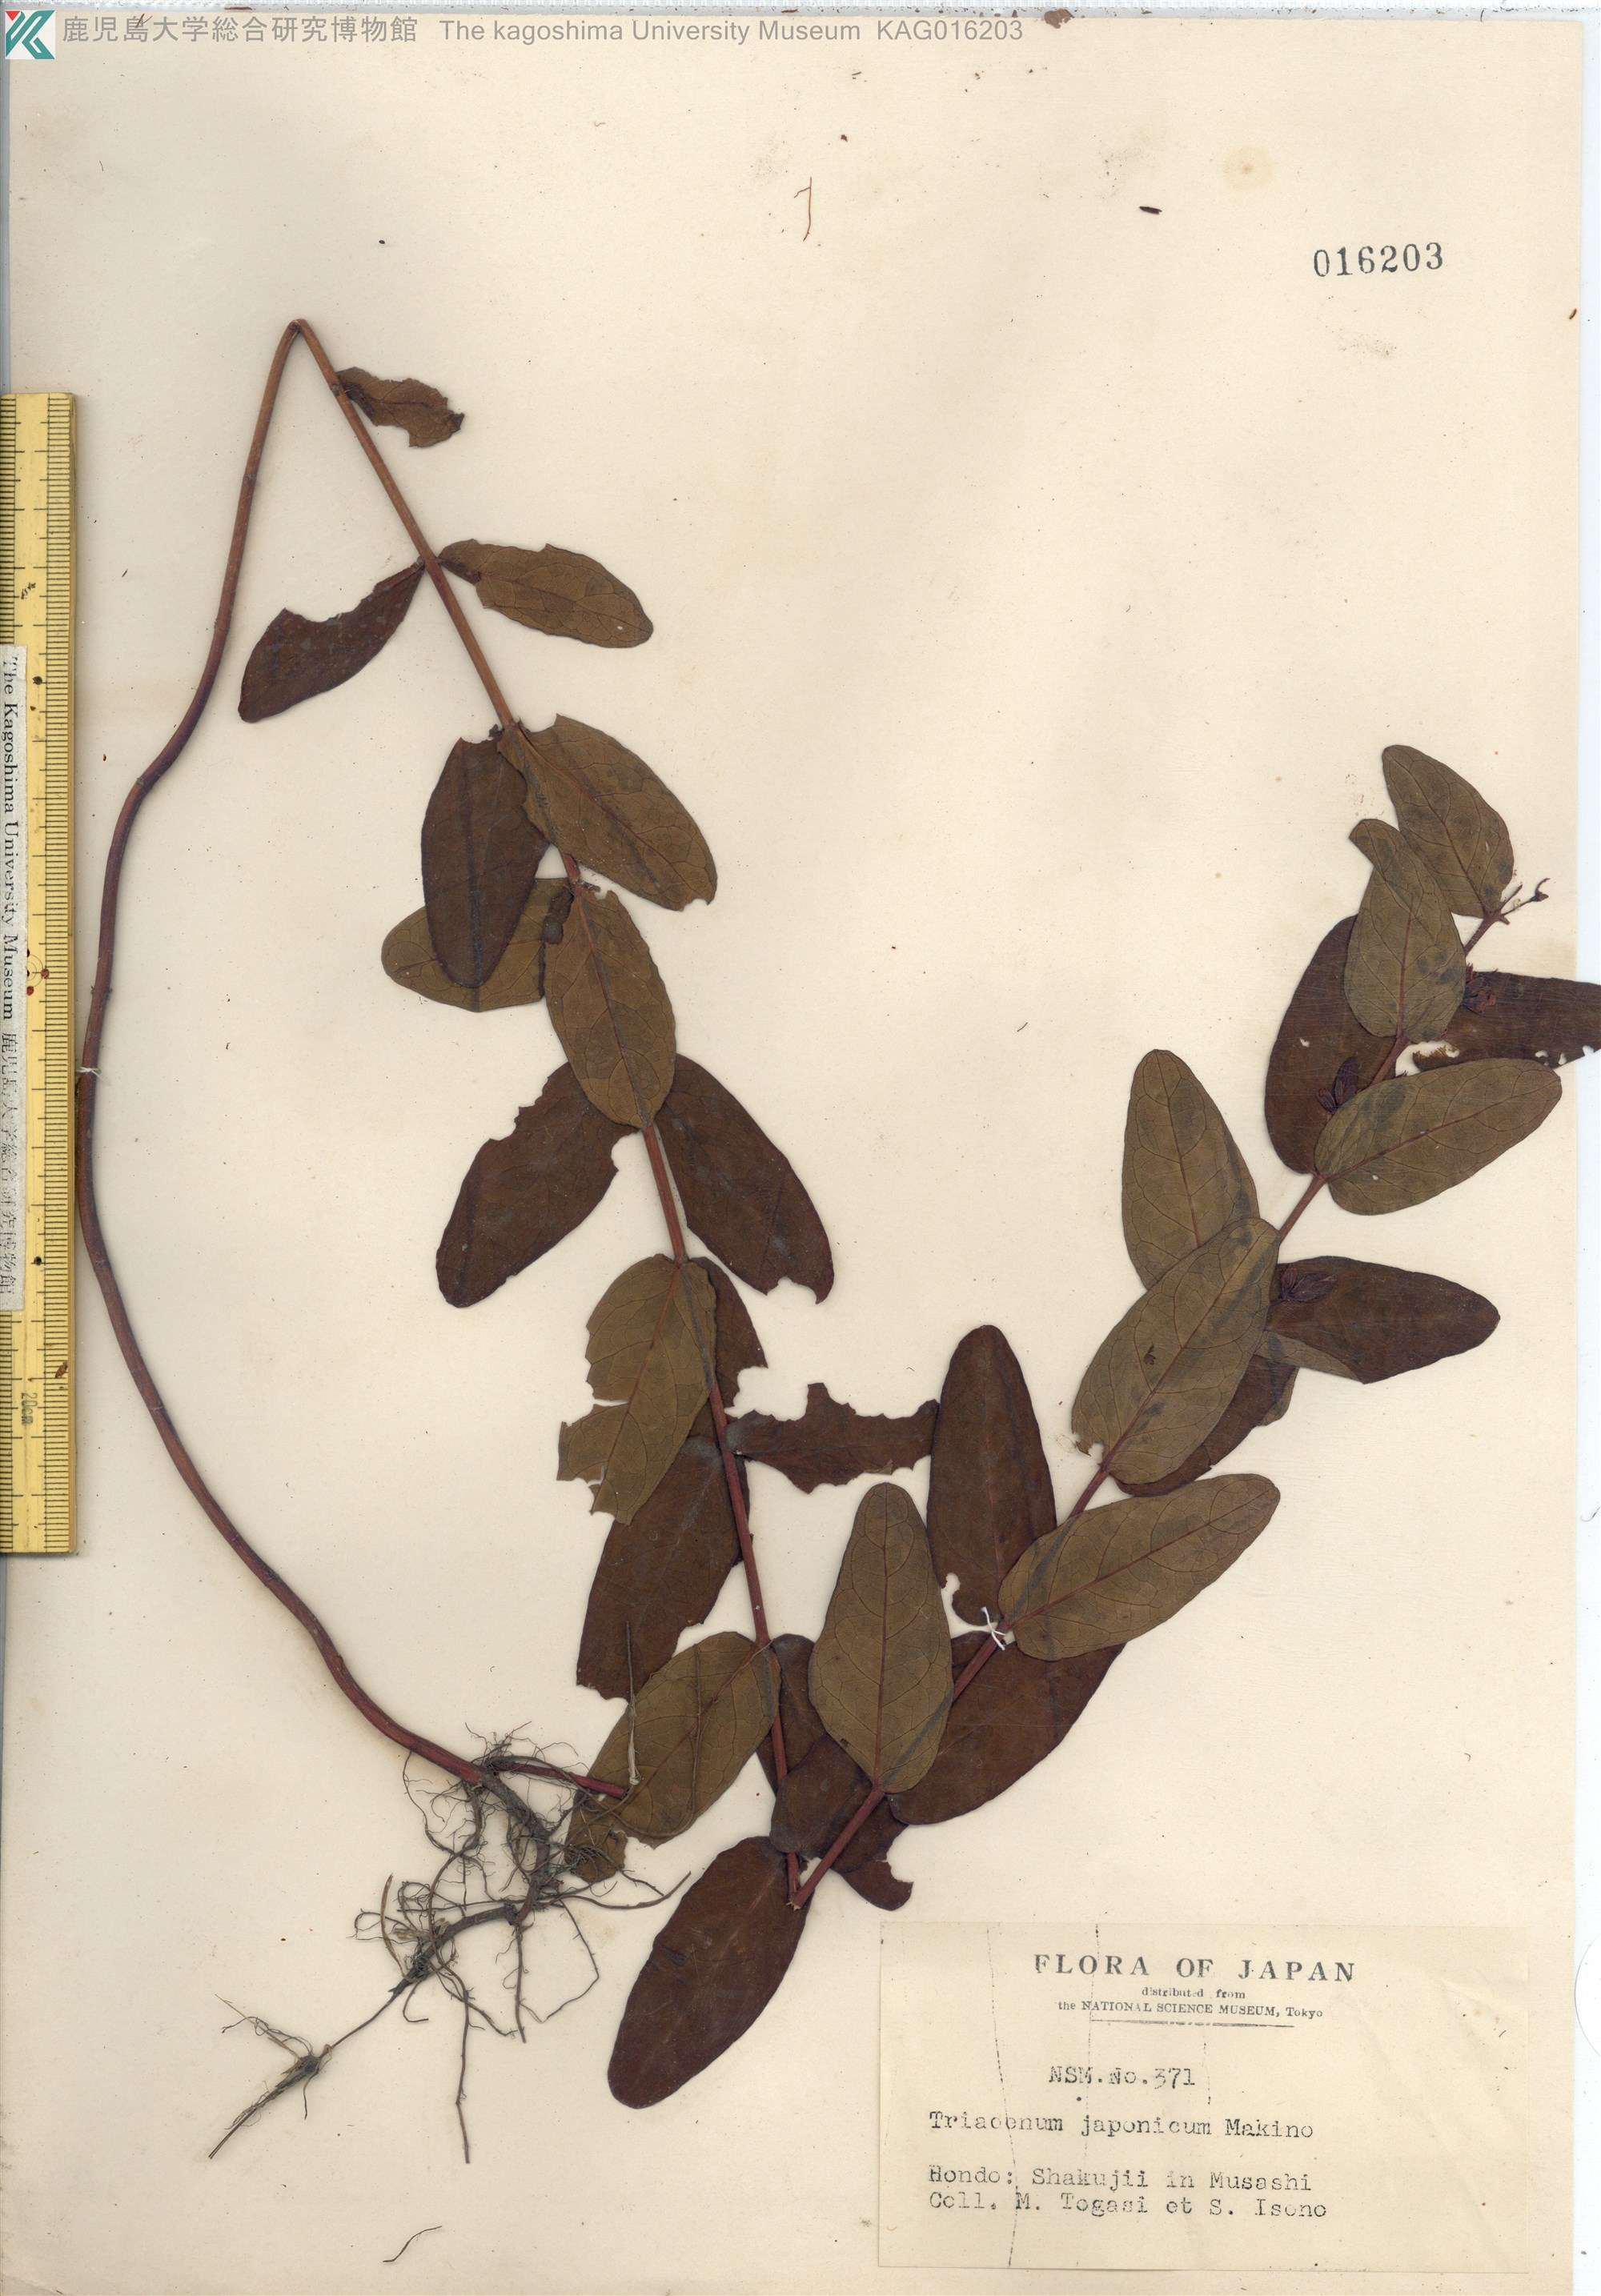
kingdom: Plantae
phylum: Tracheophyta
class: Magnoliopsida
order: Malpighiales
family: Hypericaceae
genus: Triadenum
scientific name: Triadenum japonicum
